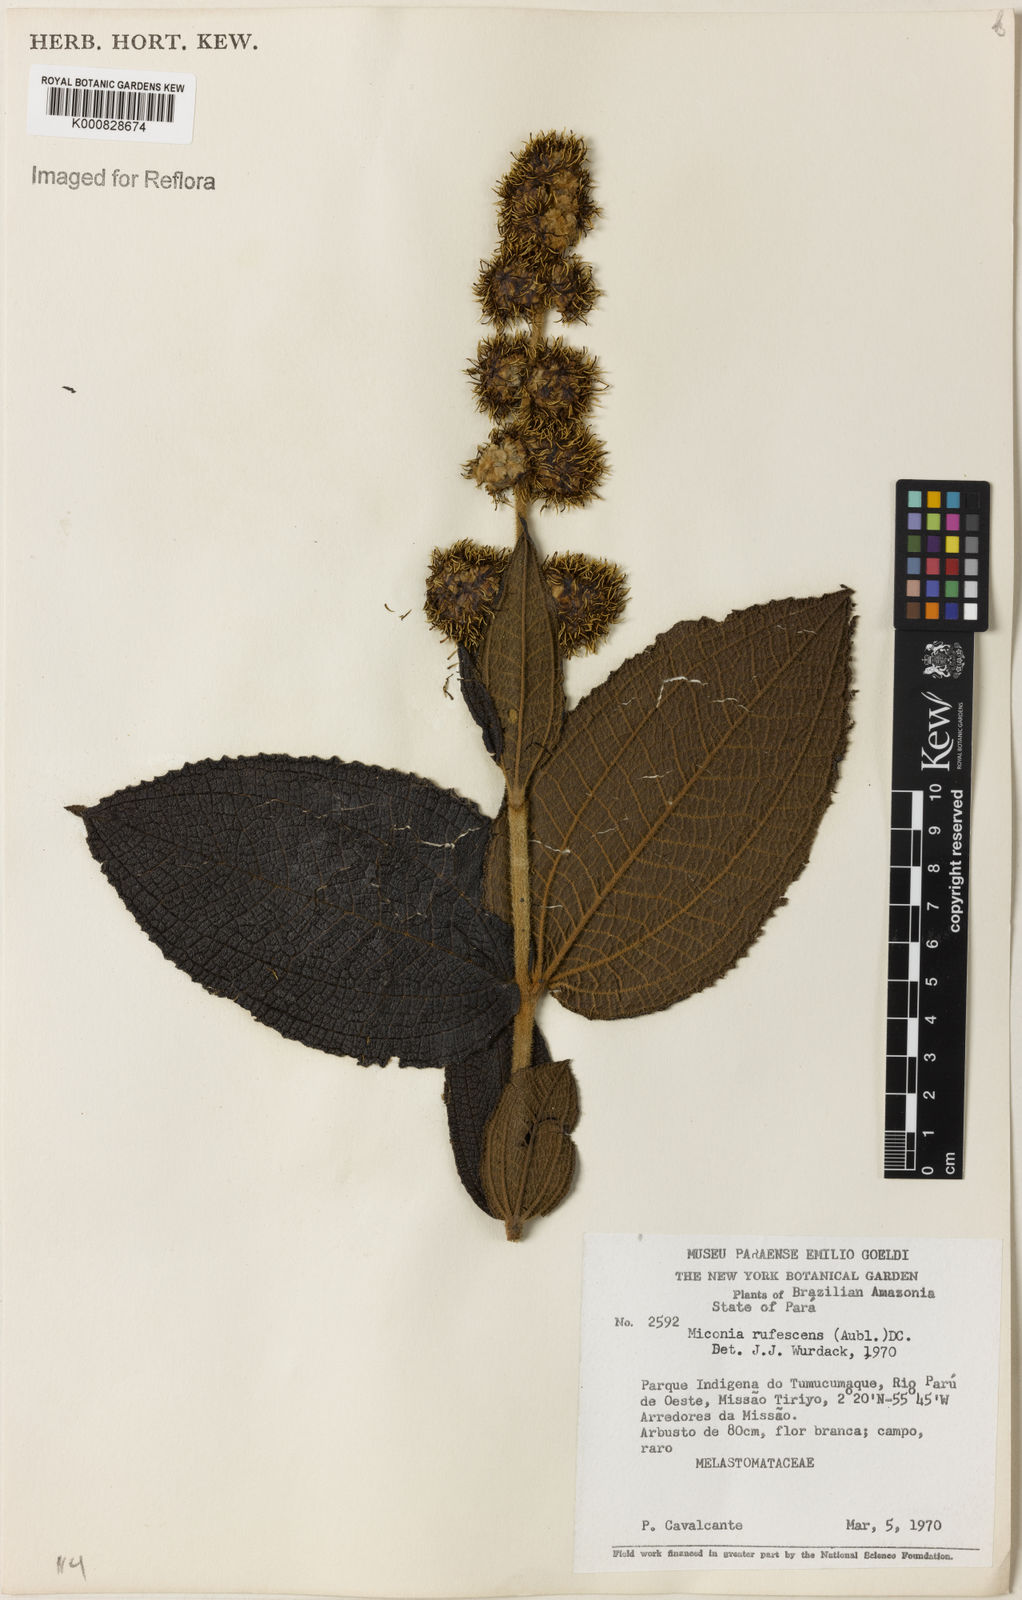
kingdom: Plantae
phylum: Tracheophyta
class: Magnoliopsida
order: Myrtales
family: Melastomataceae
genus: Miconia
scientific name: Miconia rufescens
